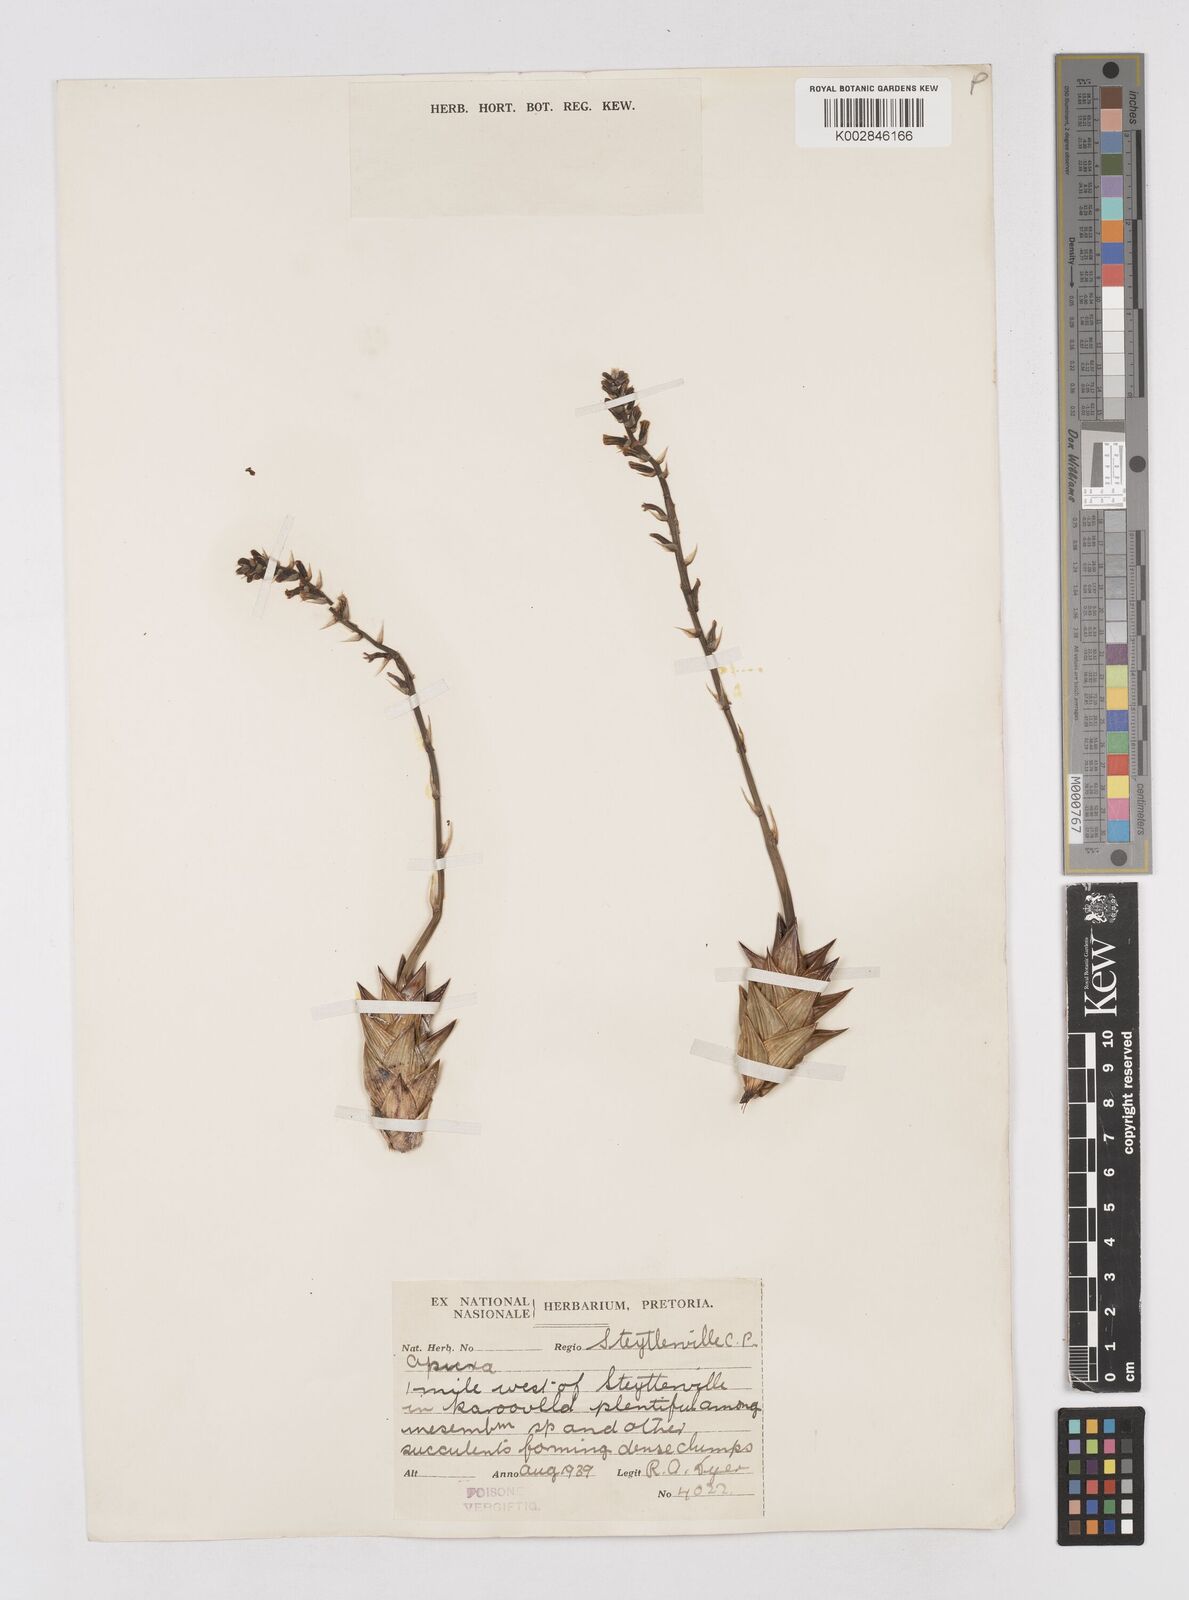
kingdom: Plantae
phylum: Tracheophyta
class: Liliopsida
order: Asparagales
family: Asphodelaceae
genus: Astroloba
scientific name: Astroloba
